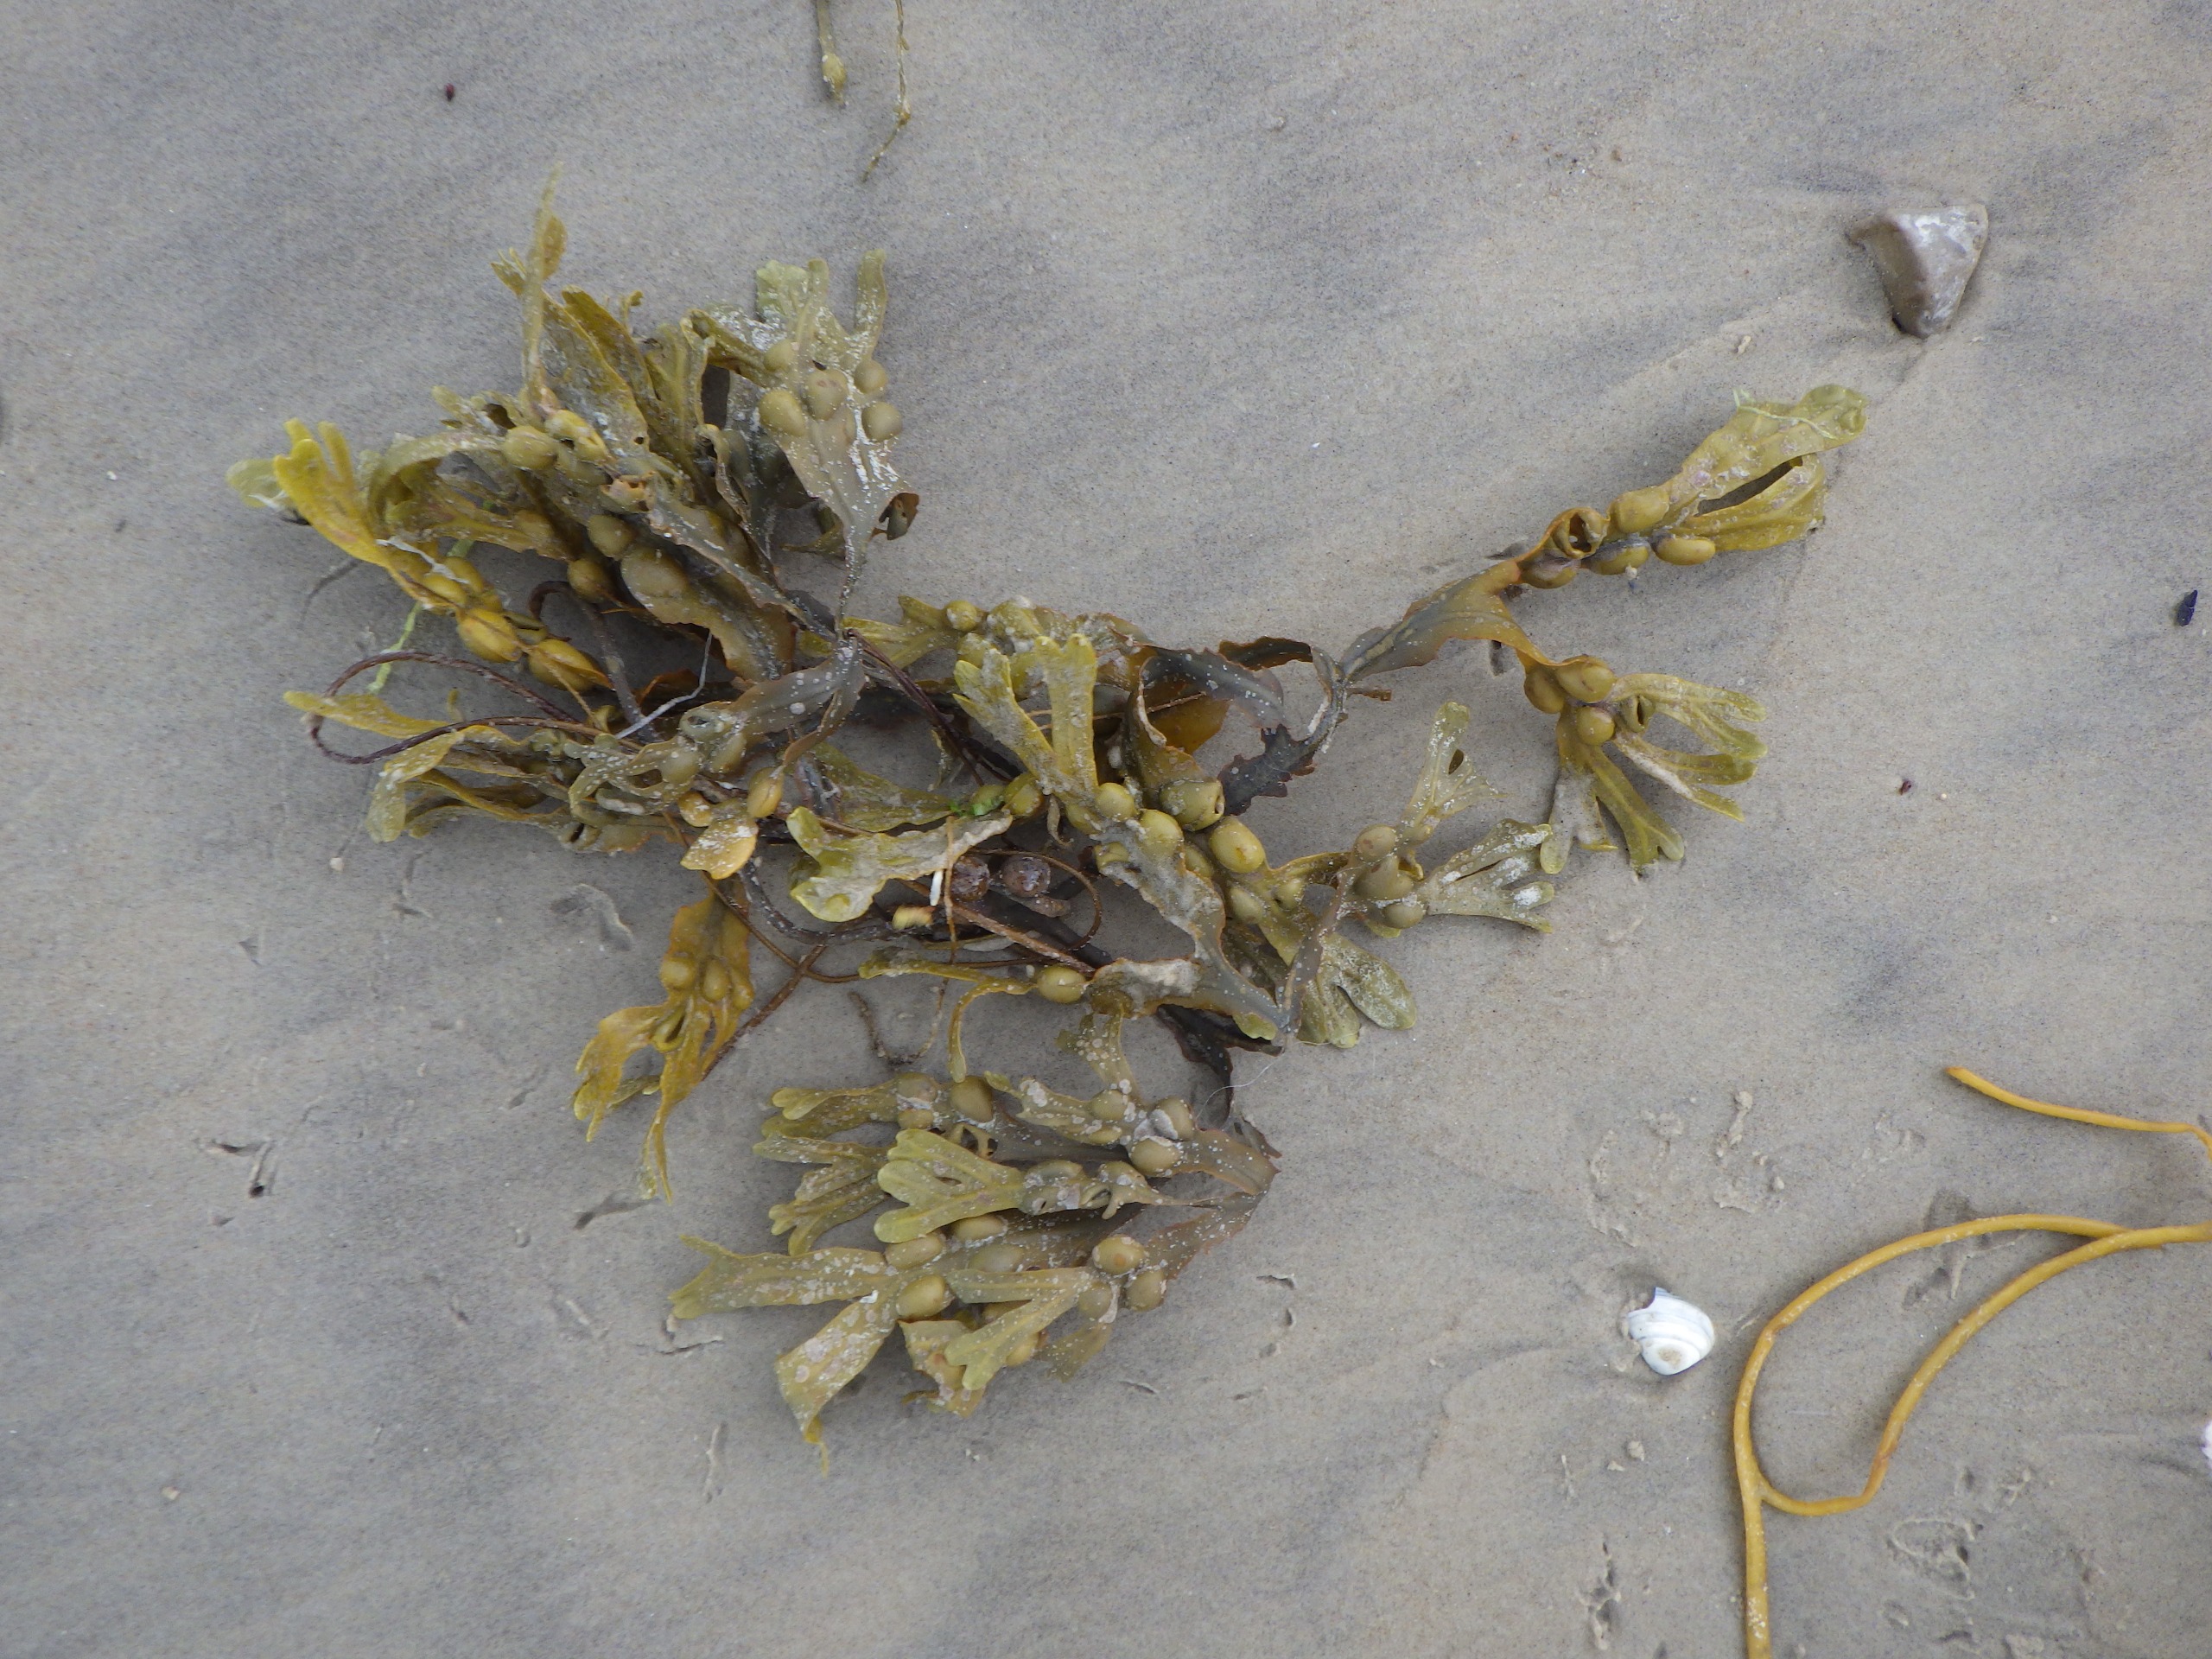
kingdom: Chromista
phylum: Ochrophyta
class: Phaeophyceae
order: Fucales
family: Fucaceae
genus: Fucus
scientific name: Fucus vesiculosus
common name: Blæretang
